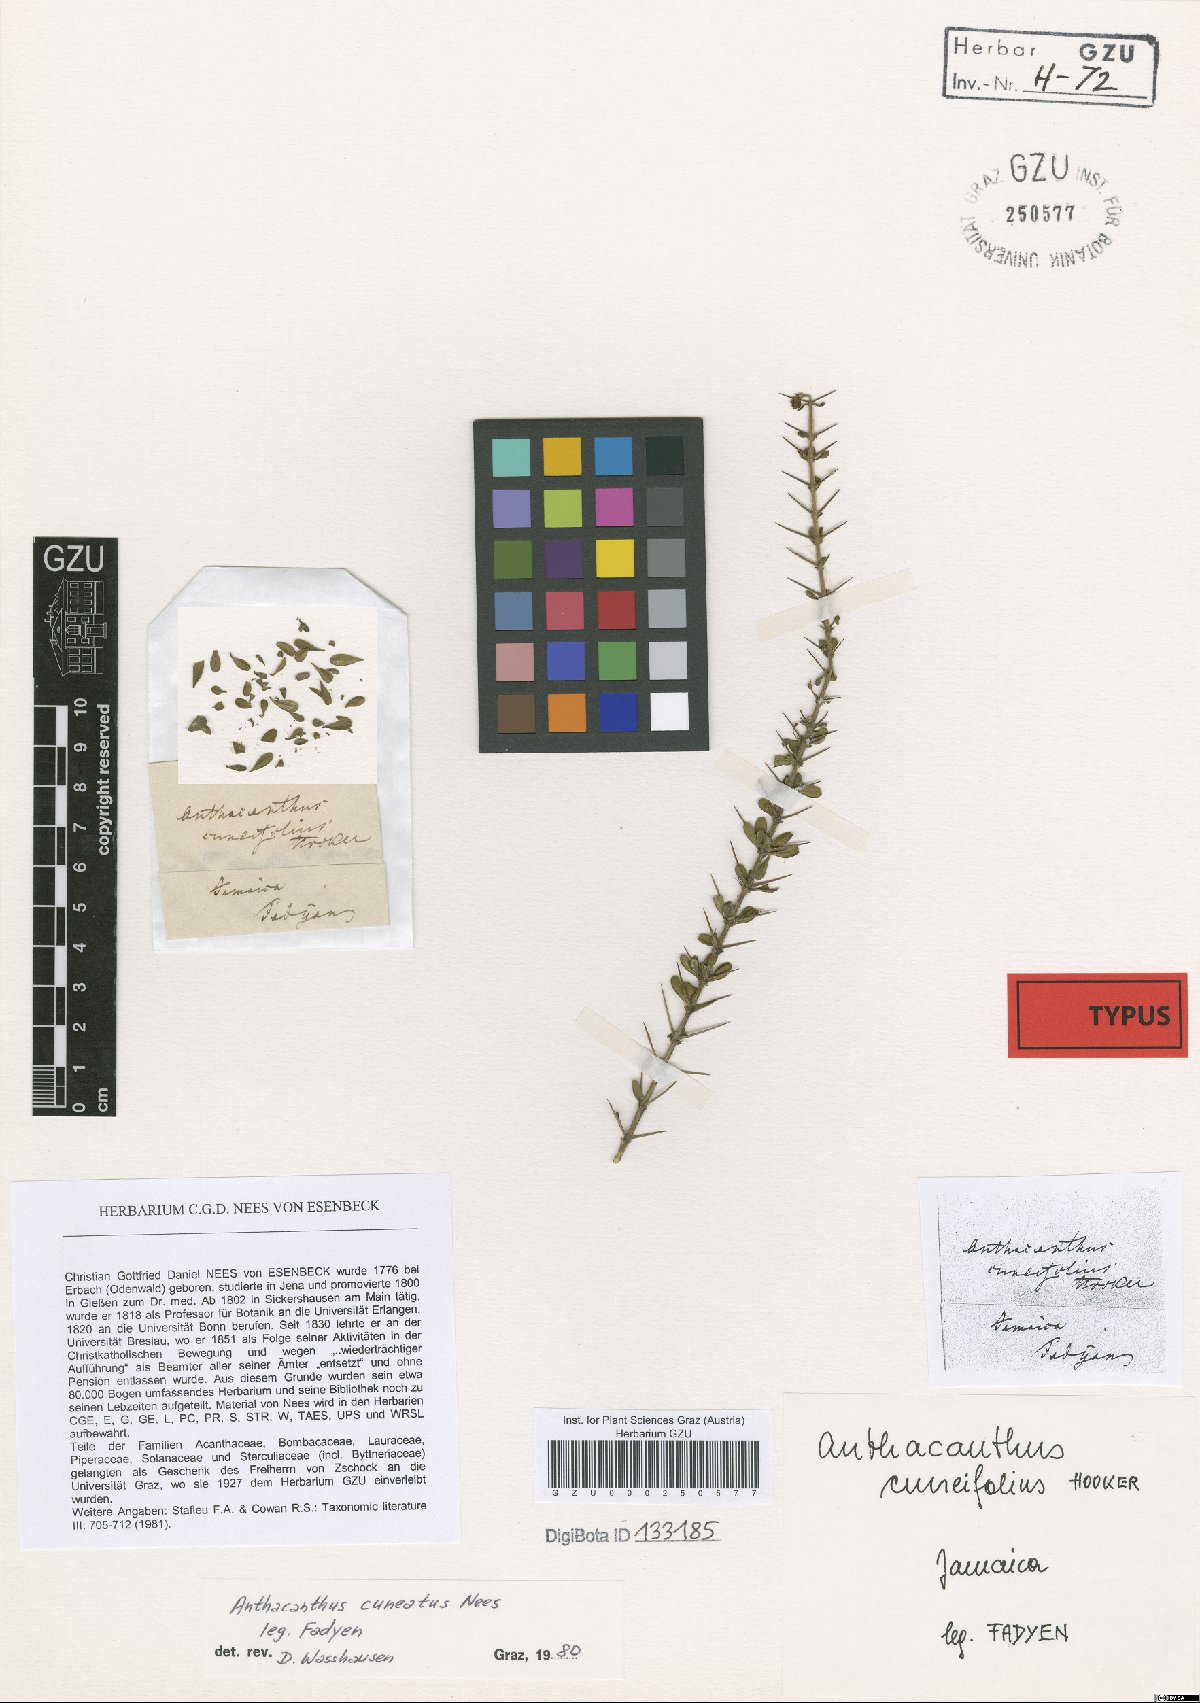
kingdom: Plantae
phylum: Tracheophyta
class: Magnoliopsida
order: Lamiales
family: Acanthaceae
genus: Oplonia
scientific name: Oplonia microphylla
